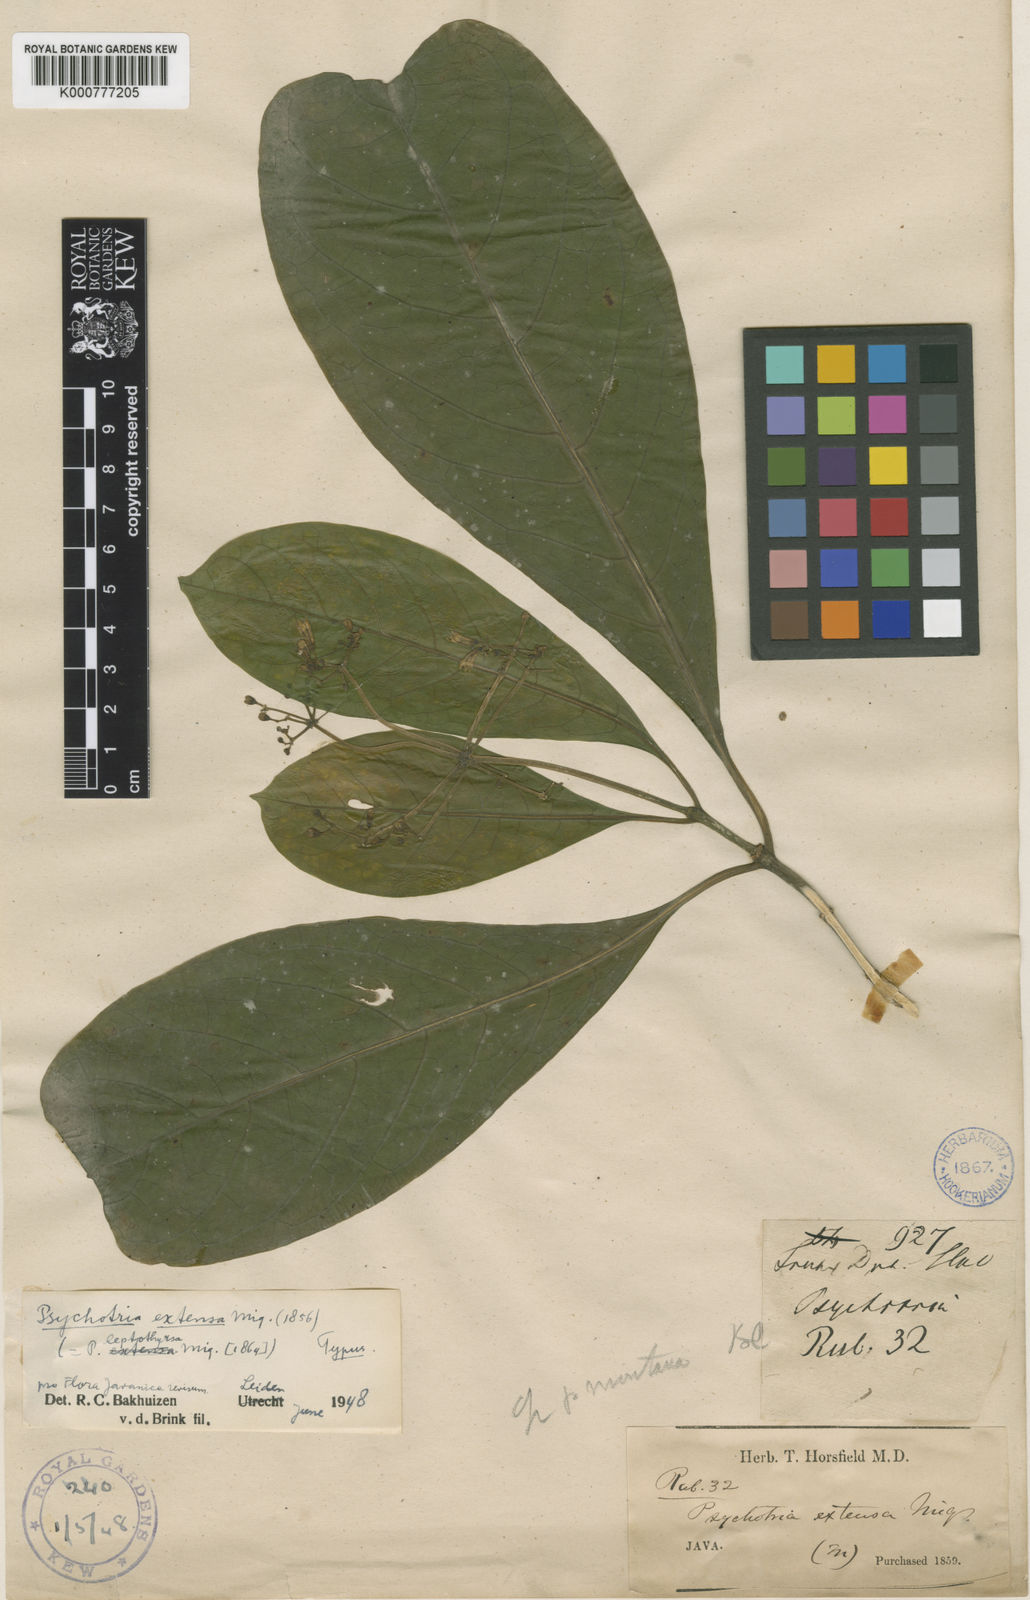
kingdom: Plantae
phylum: Tracheophyta
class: Magnoliopsida
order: Gentianales
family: Rubiaceae
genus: Eumachia
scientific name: Eumachia extensa
